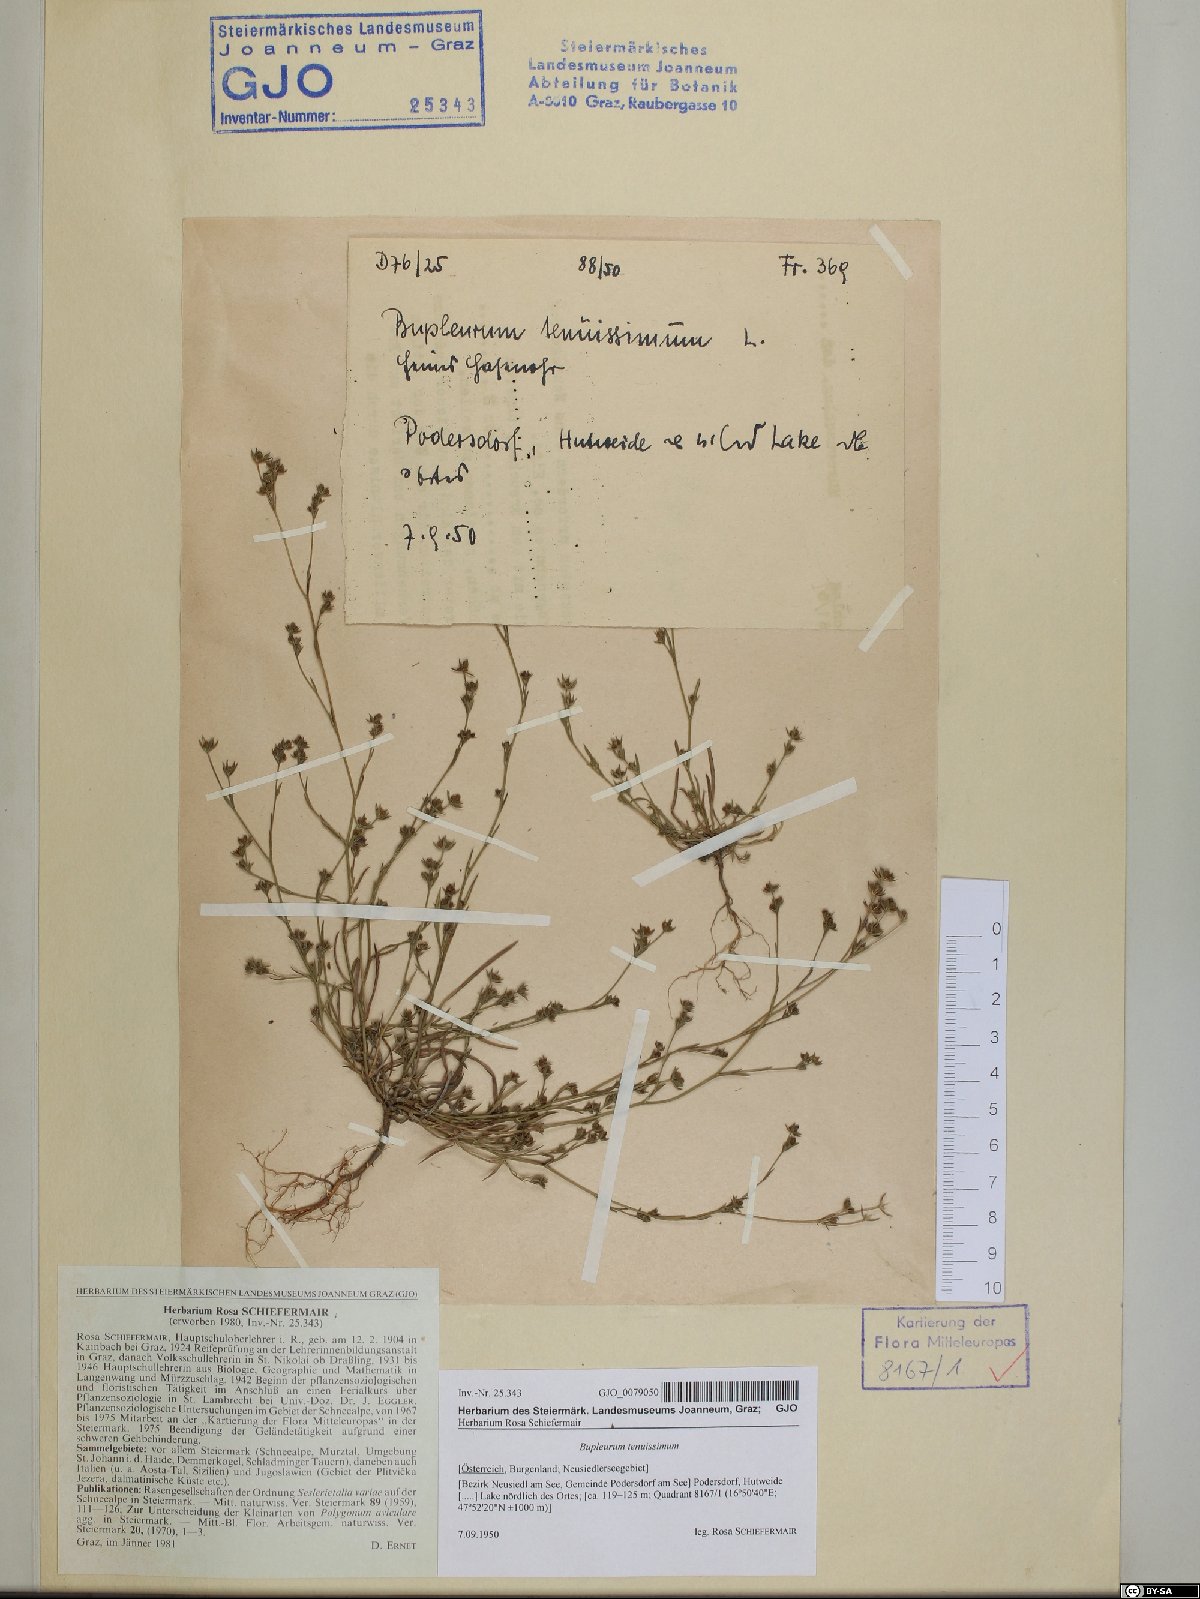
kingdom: Plantae
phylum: Tracheophyta
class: Magnoliopsida
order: Apiales
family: Apiaceae
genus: Bupleurum
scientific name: Bupleurum tenuissimum
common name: Slender hare's-ear
